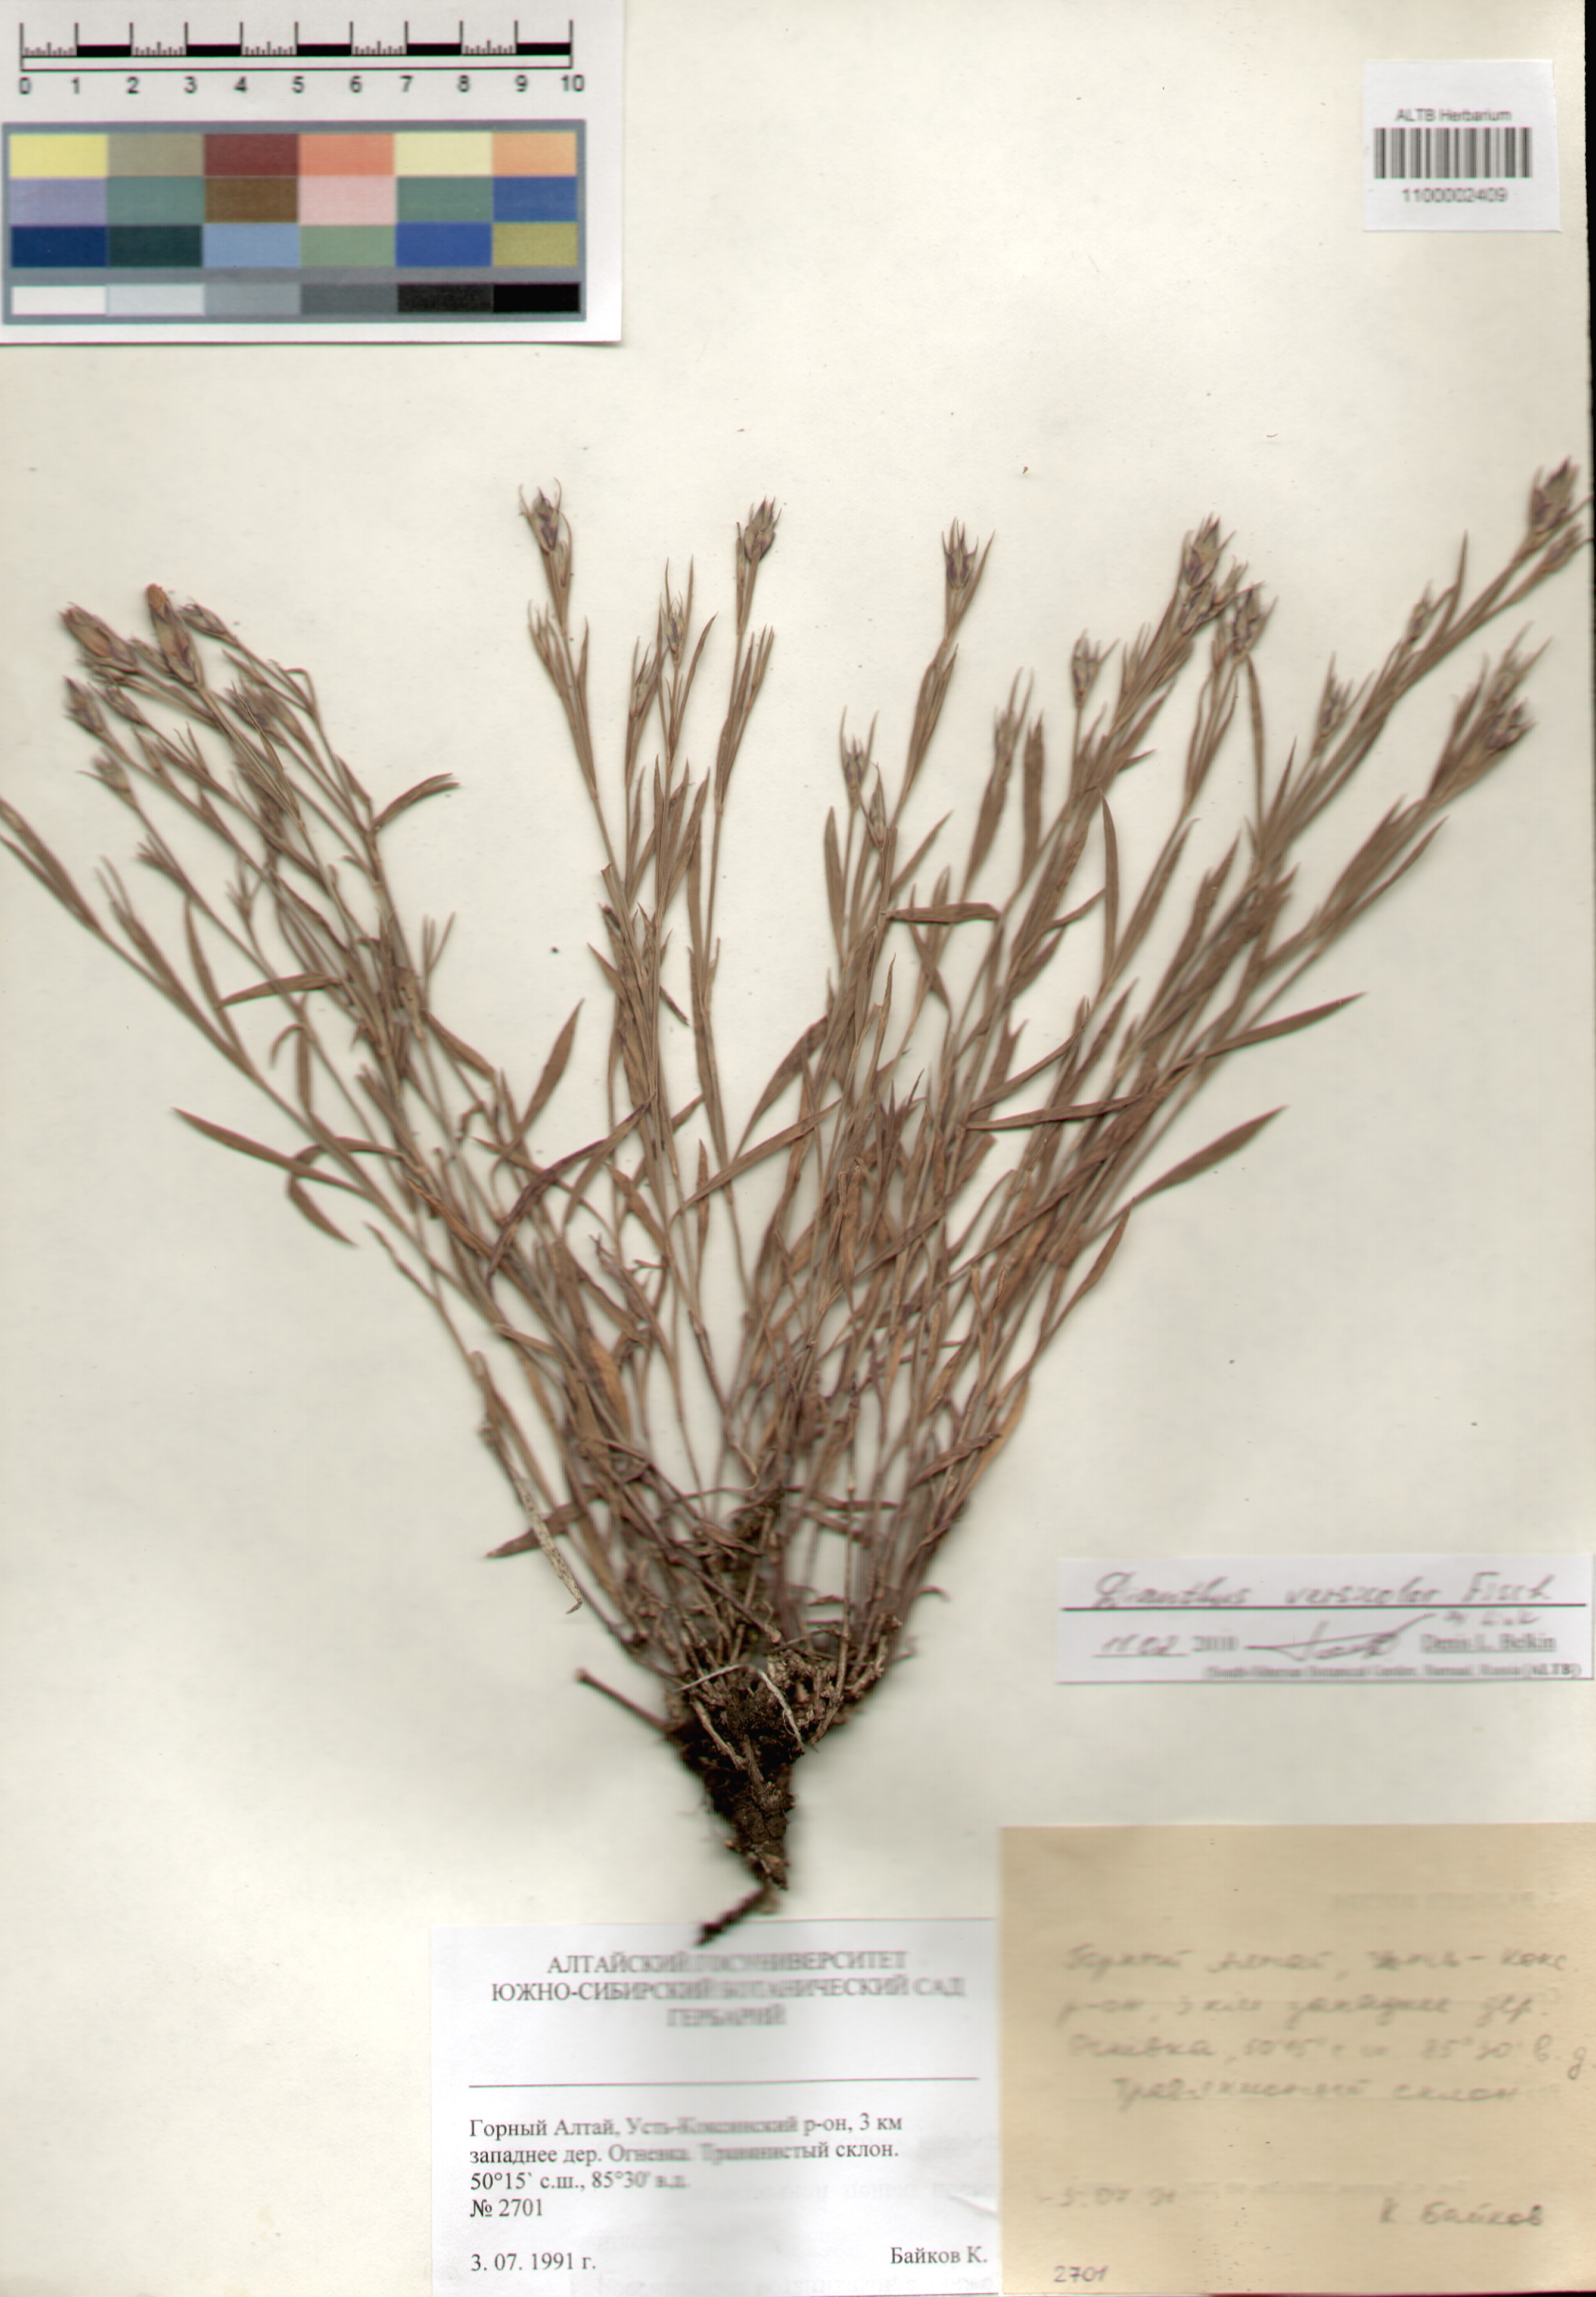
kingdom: Plantae
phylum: Tracheophyta
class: Magnoliopsida
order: Caryophyllales
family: Caryophyllaceae
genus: Dianthus
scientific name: Dianthus chinensis
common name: Rainbow pink
